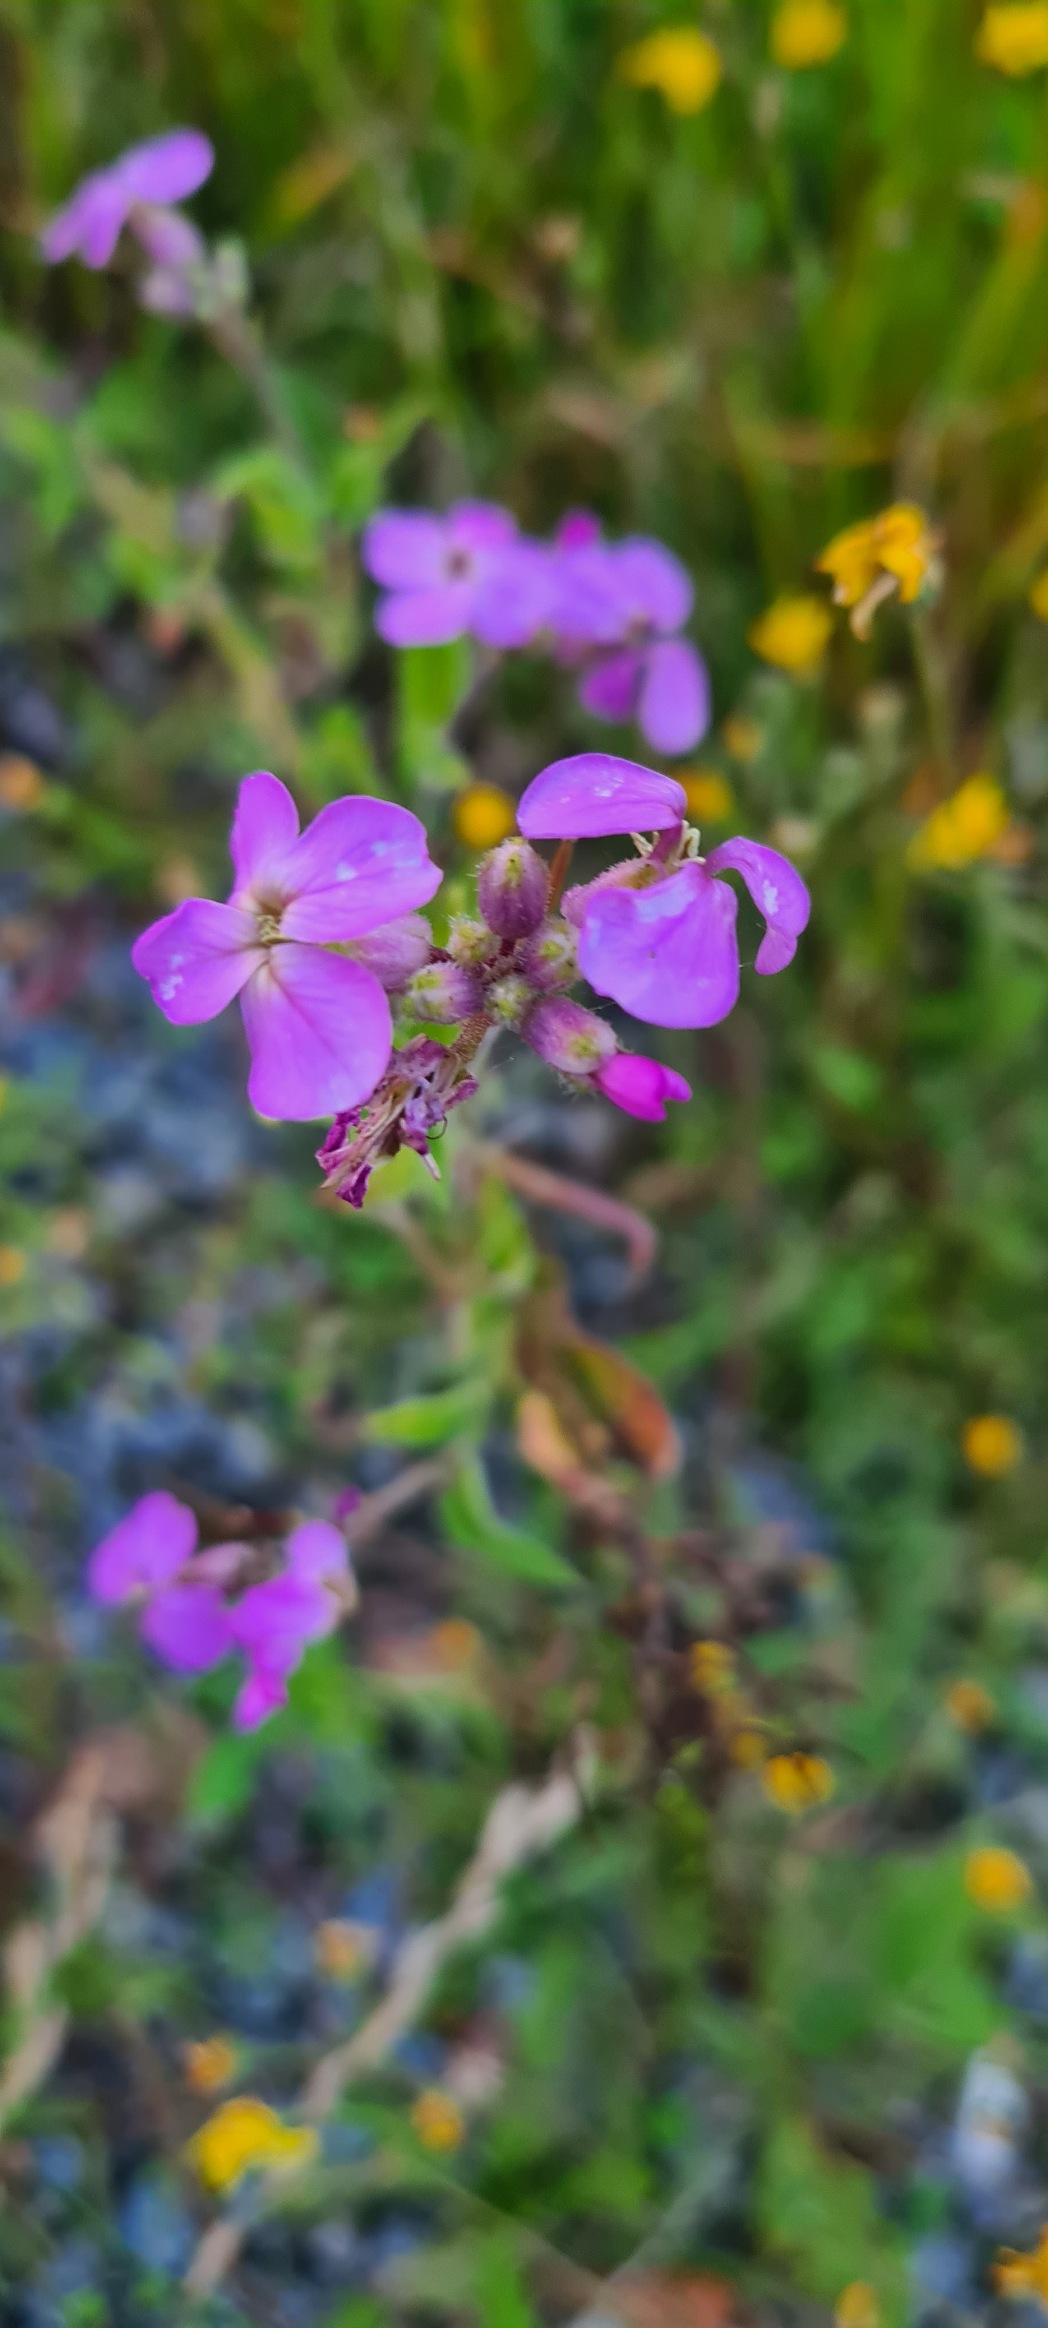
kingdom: Plantae
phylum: Tracheophyta
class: Magnoliopsida
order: Brassicales
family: Brassicaceae
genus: Hesperis
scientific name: Hesperis matronalis
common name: Aftenstjerne
